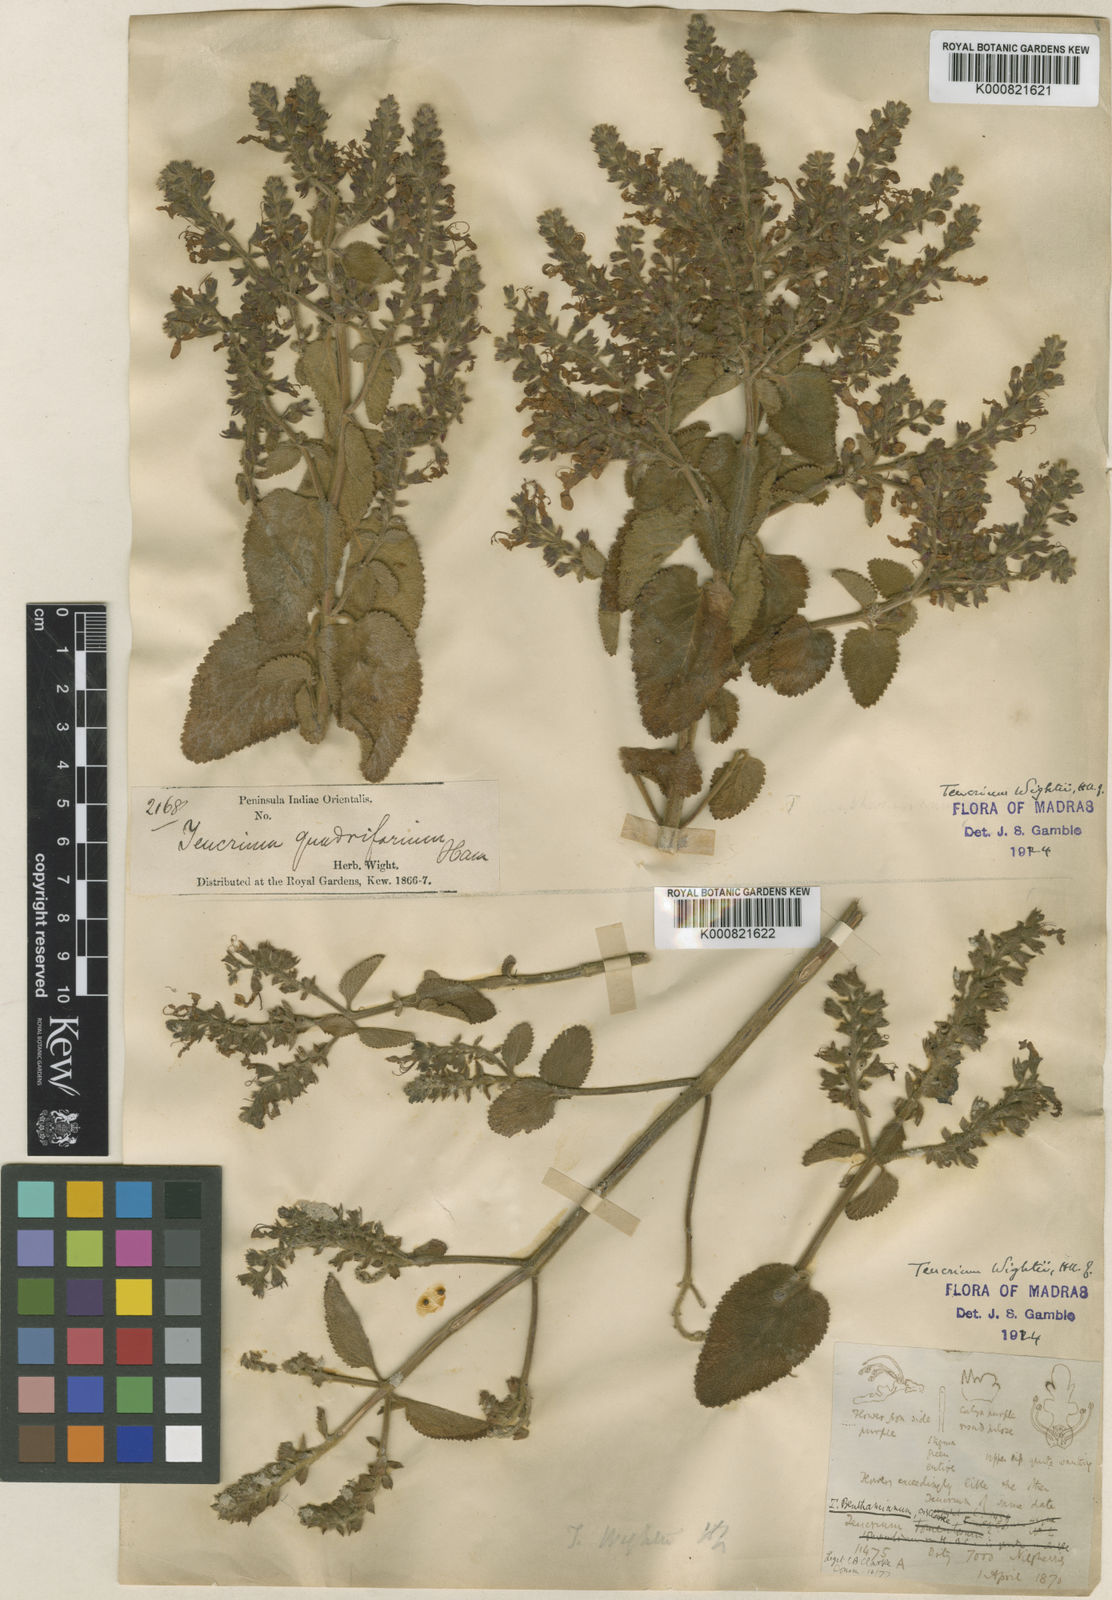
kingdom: Plantae
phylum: Tracheophyta
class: Magnoliopsida
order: Lamiales
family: Lamiaceae
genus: Teucrium
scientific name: Teucrium wightii
